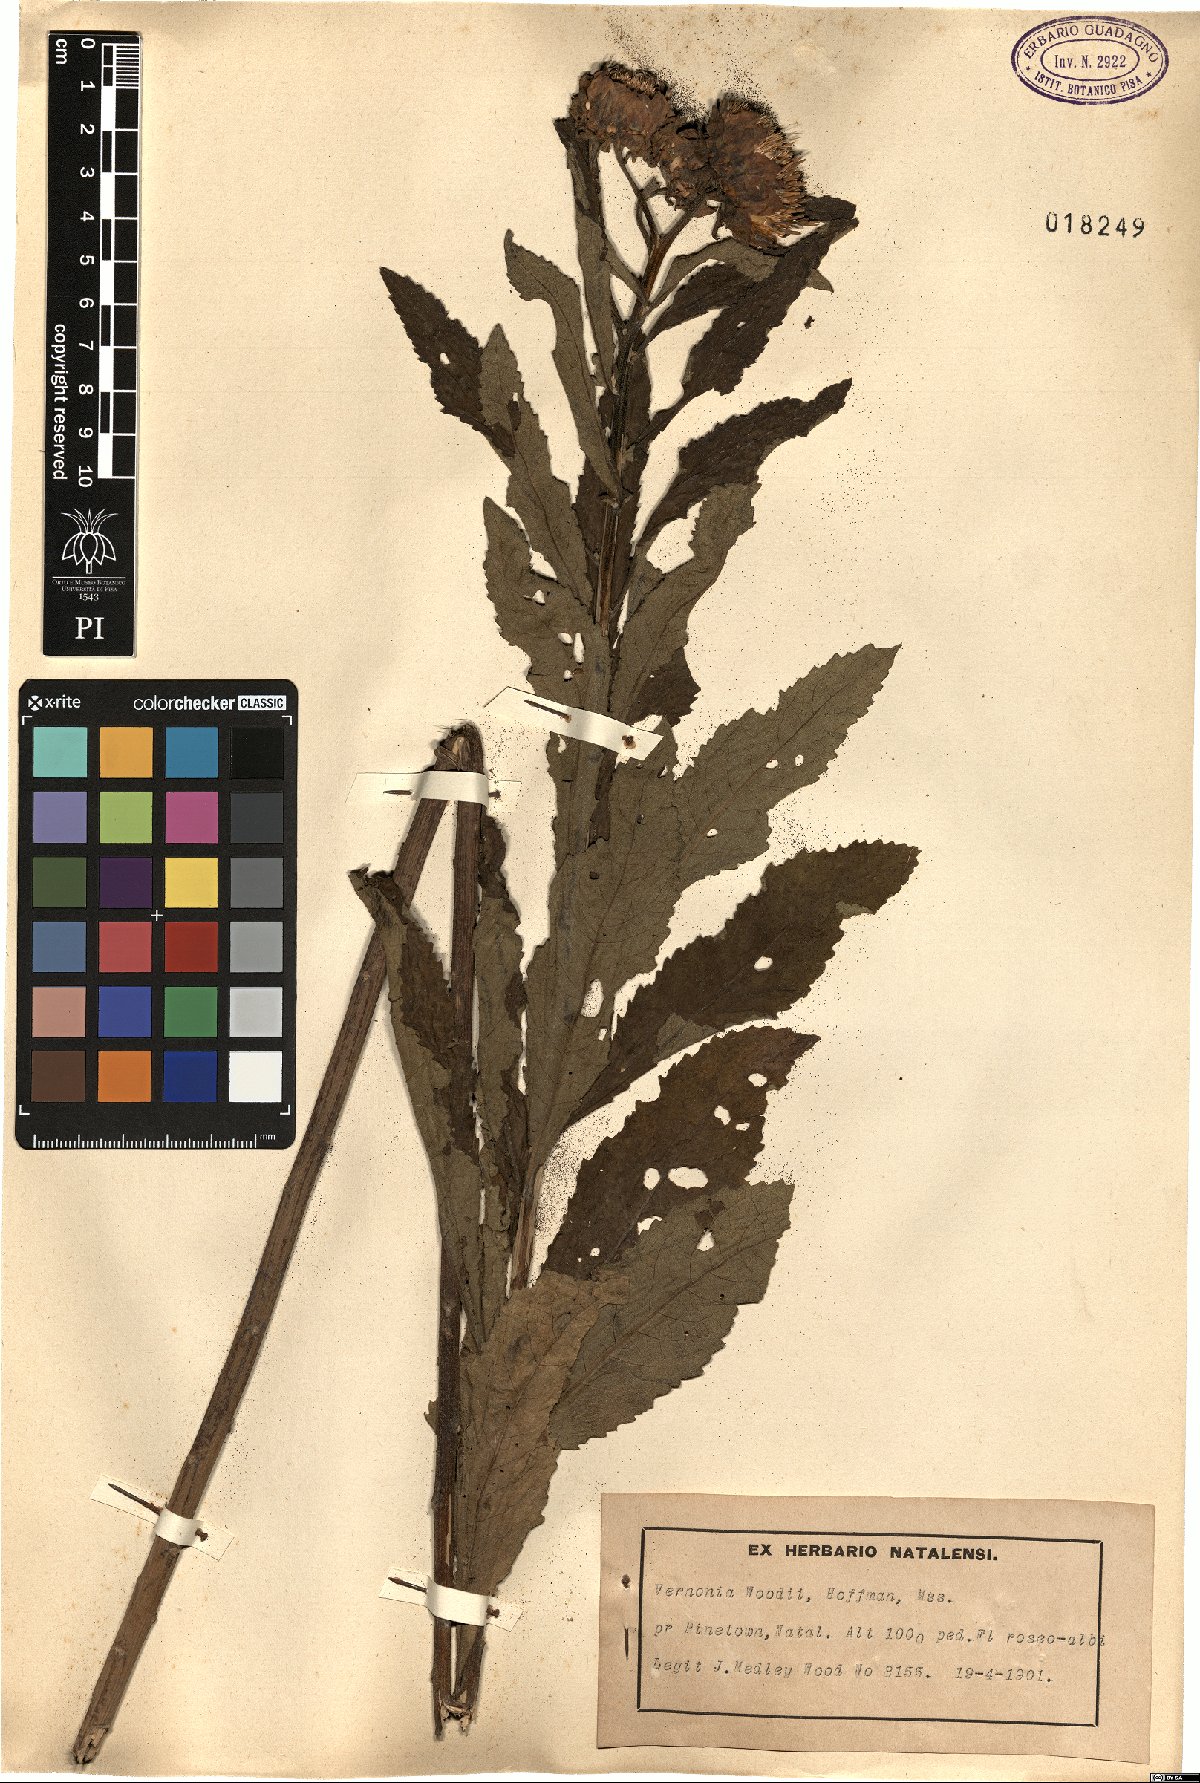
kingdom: Plantae
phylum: Tracheophyta
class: Magnoliopsida
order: Asterales
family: Asteraceae
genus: Baccharoides
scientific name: Baccharoides adoensis
